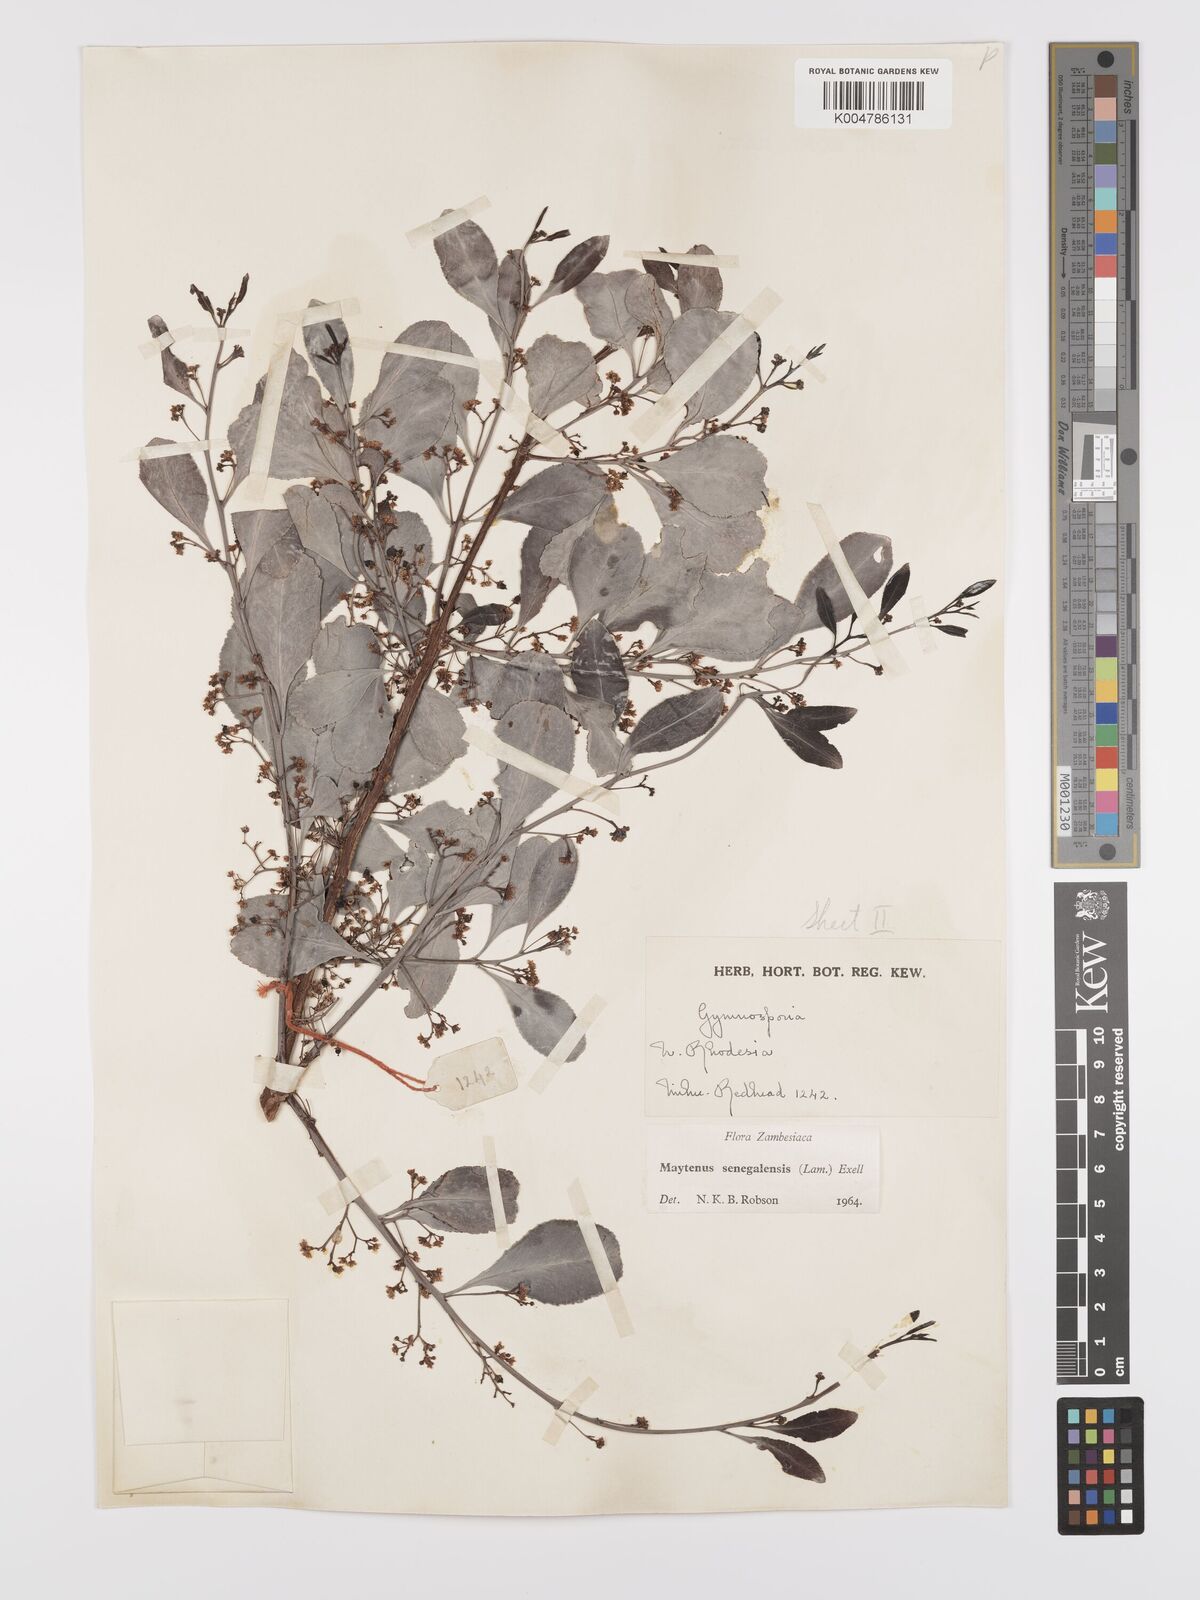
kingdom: Plantae
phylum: Tracheophyta
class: Magnoliopsida
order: Celastrales
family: Celastraceae
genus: Gymnosporia
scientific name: Gymnosporia senegalensis
